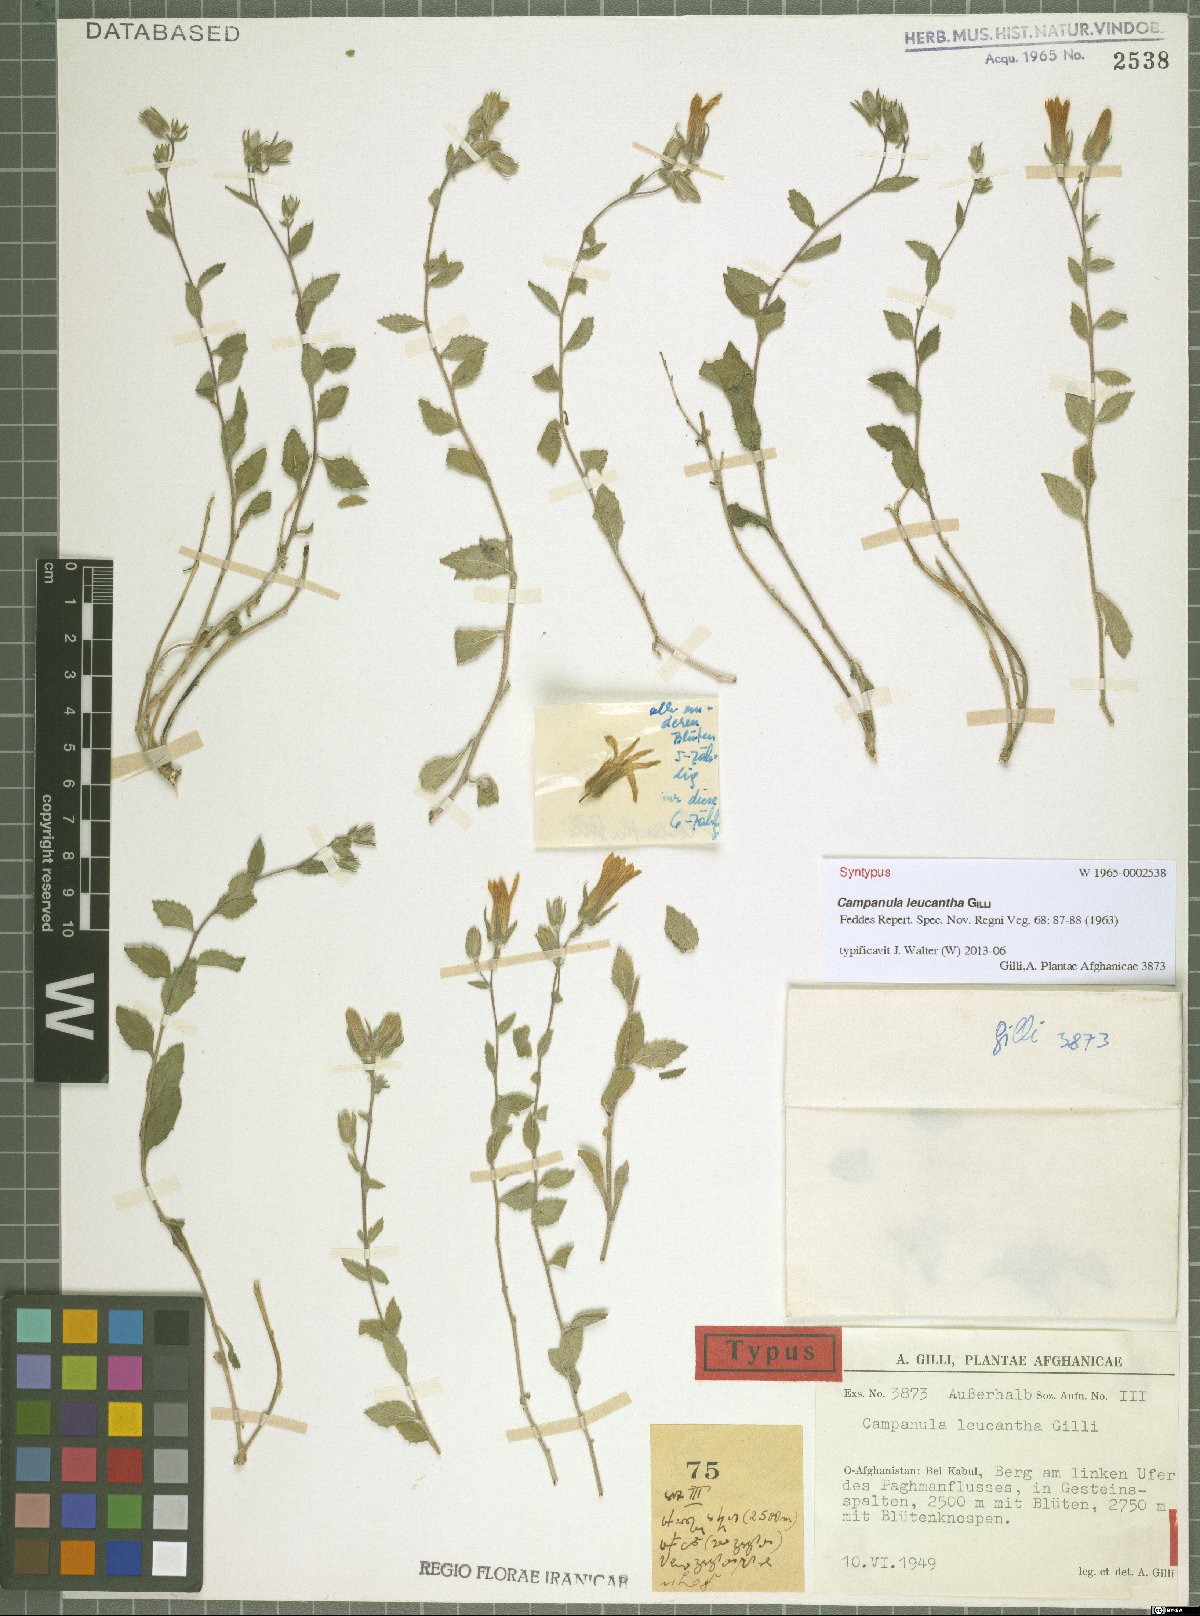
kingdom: Plantae
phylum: Tracheophyta
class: Magnoliopsida
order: Asterales
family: Campanulaceae
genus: Campanula
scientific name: Campanula leucantha
